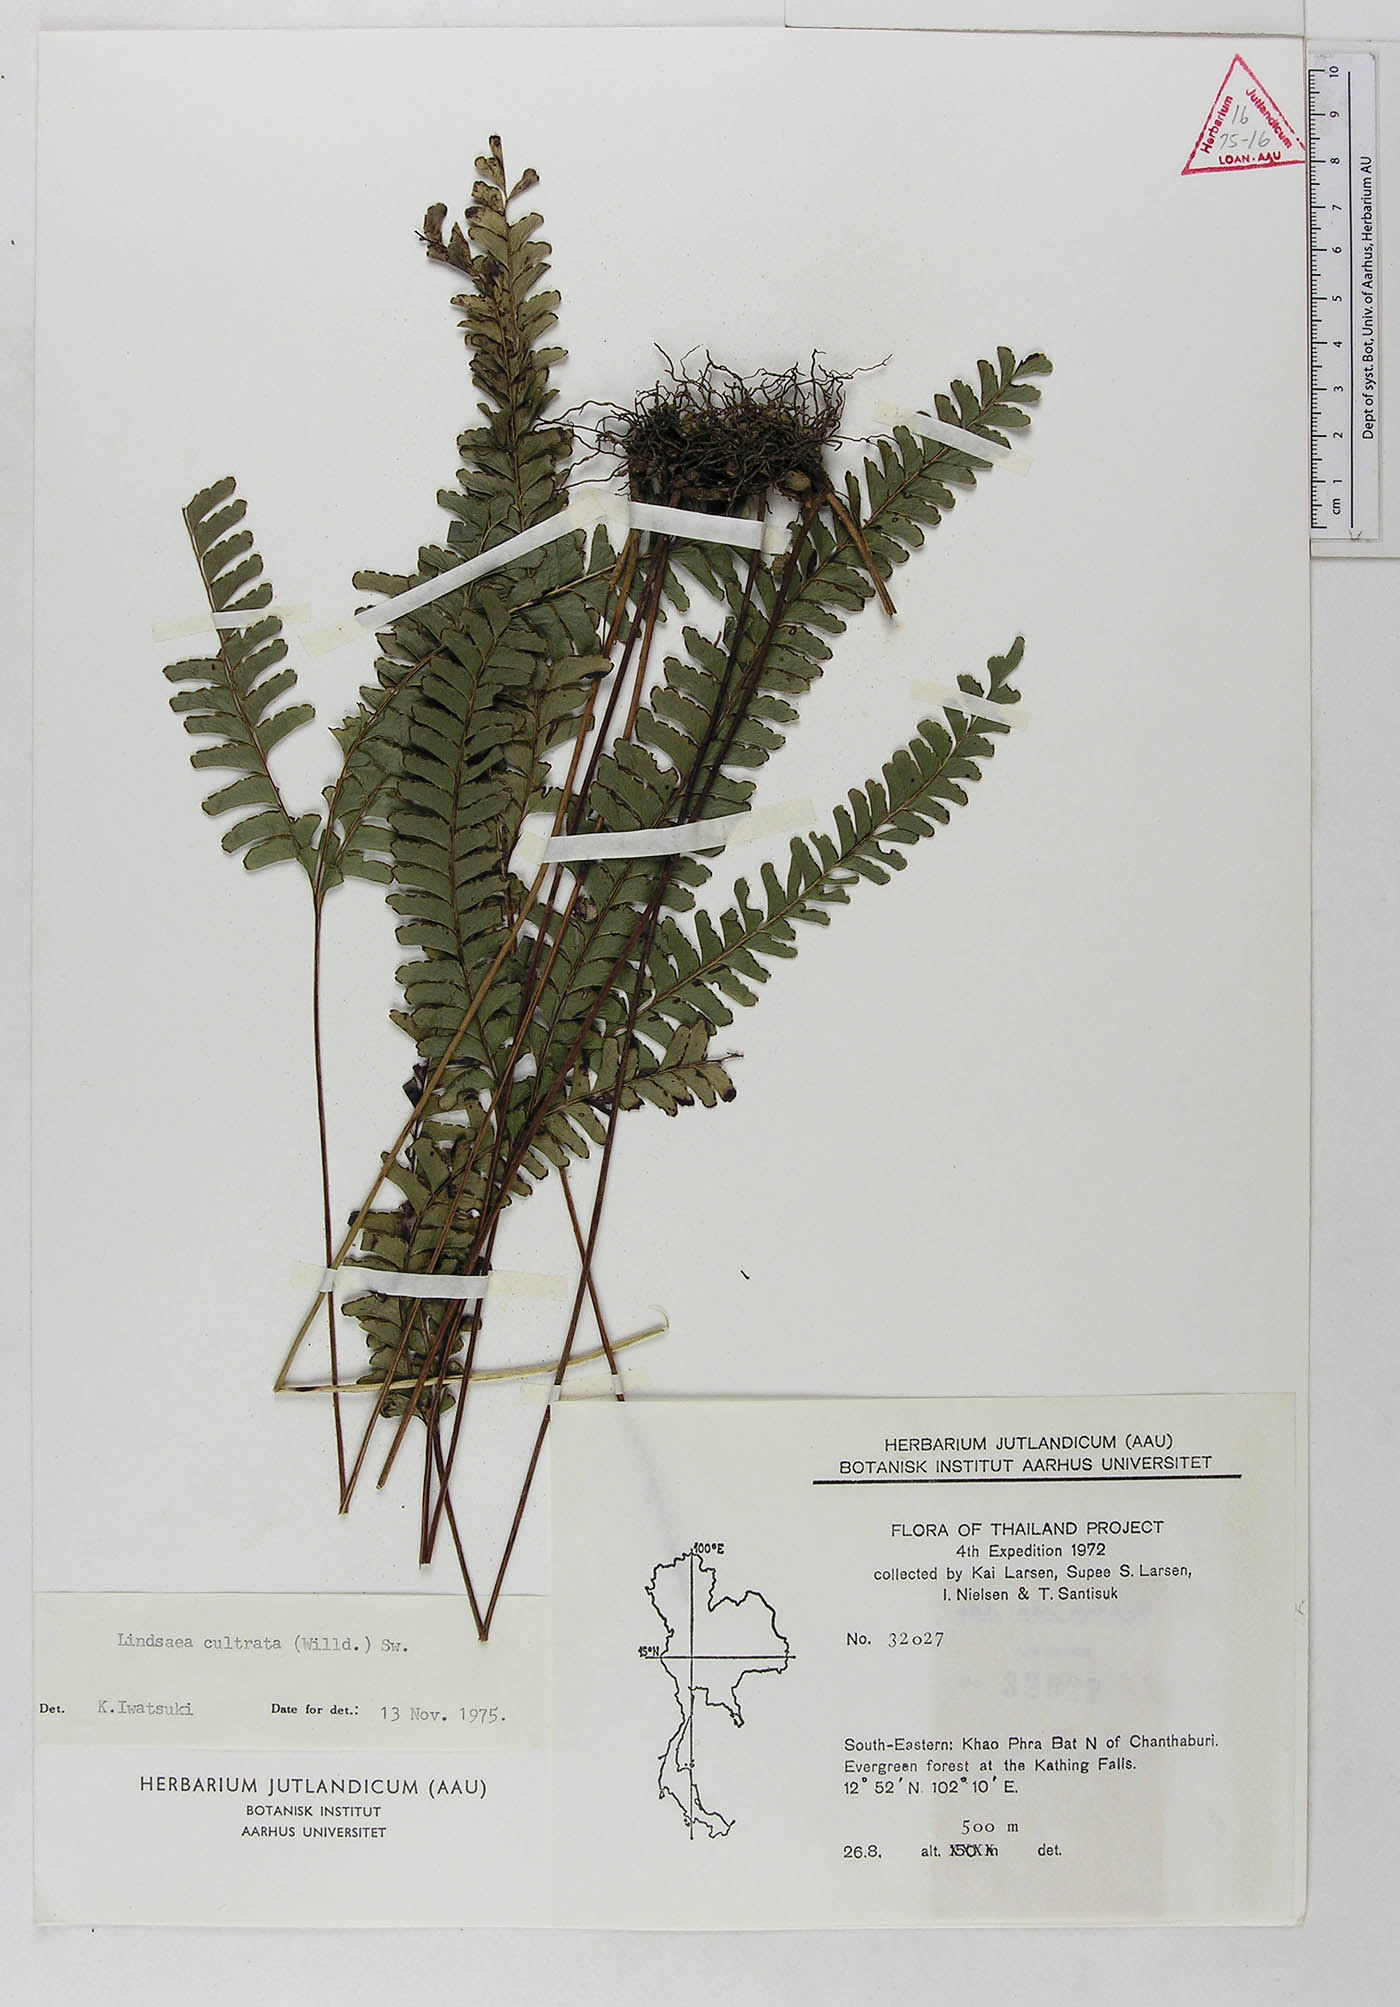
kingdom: Plantae
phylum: Tracheophyta
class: Polypodiopsida
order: Polypodiales
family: Lindsaeaceae
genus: Lindsaea
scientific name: Lindsaea cultrata
